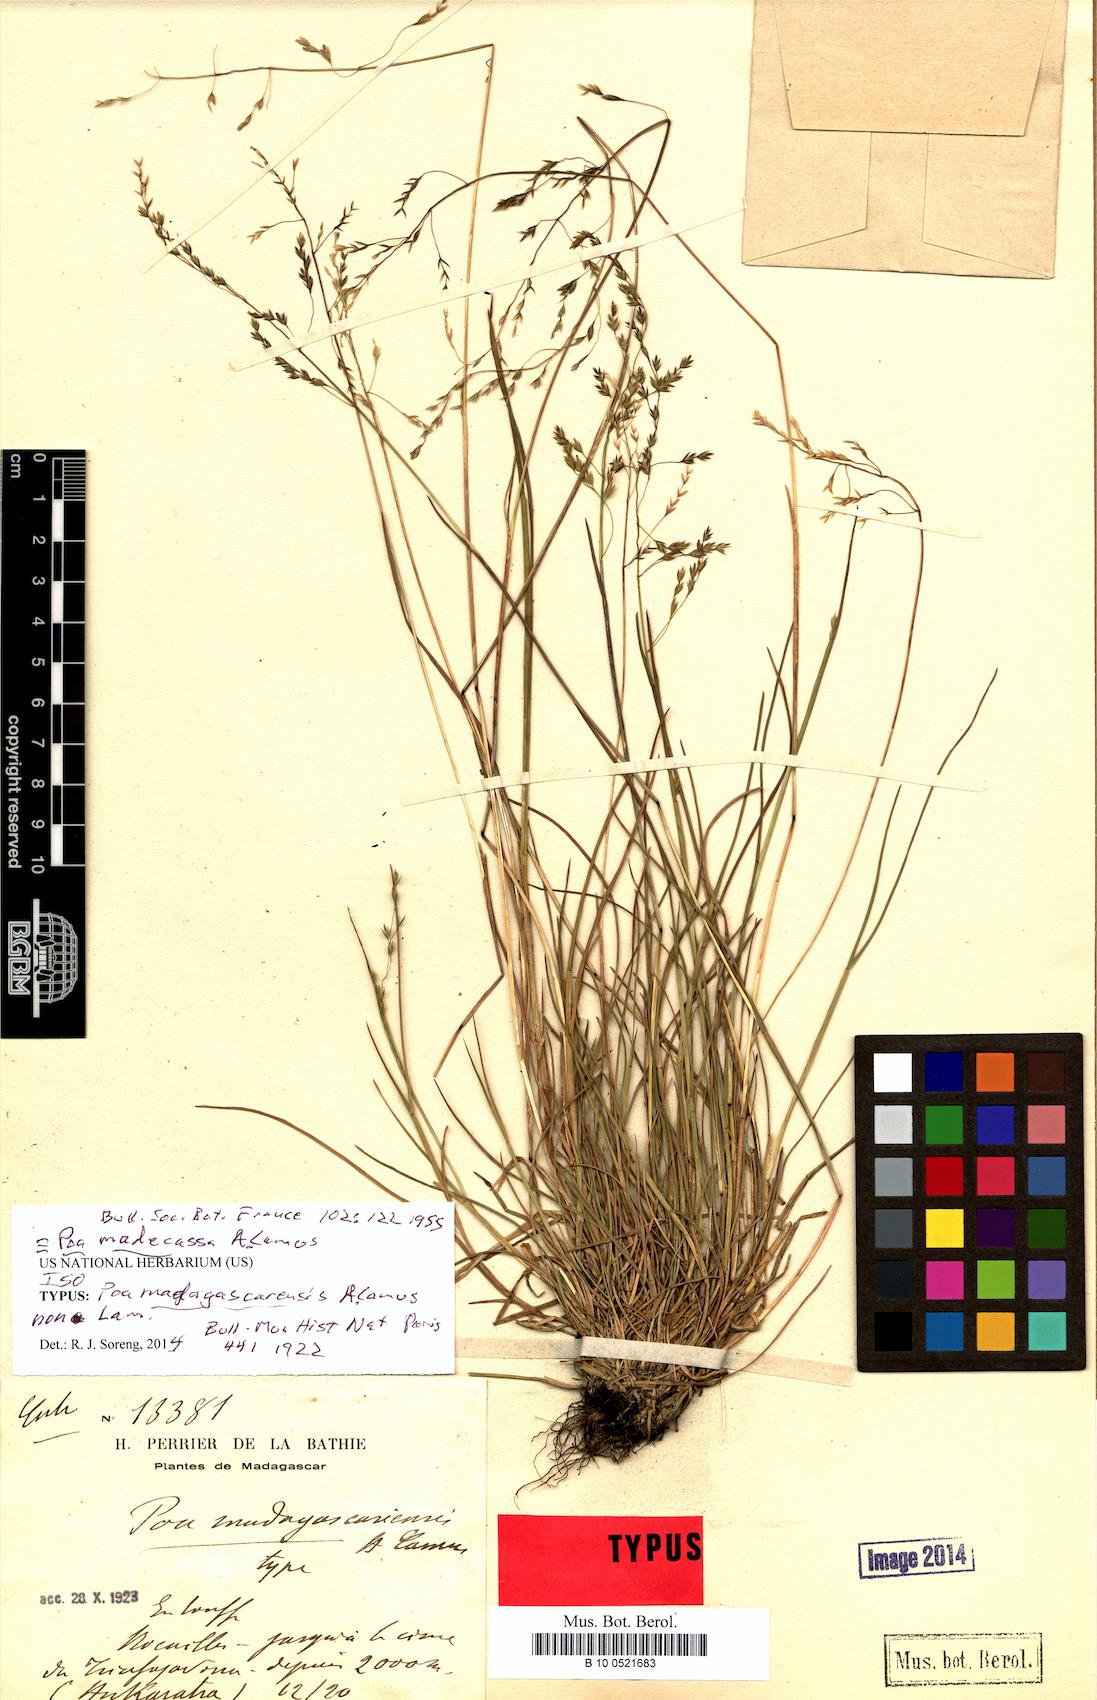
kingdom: Plantae
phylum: Tracheophyta
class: Liliopsida
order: Poales
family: Poaceae
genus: Poa
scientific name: Poa madecassa
